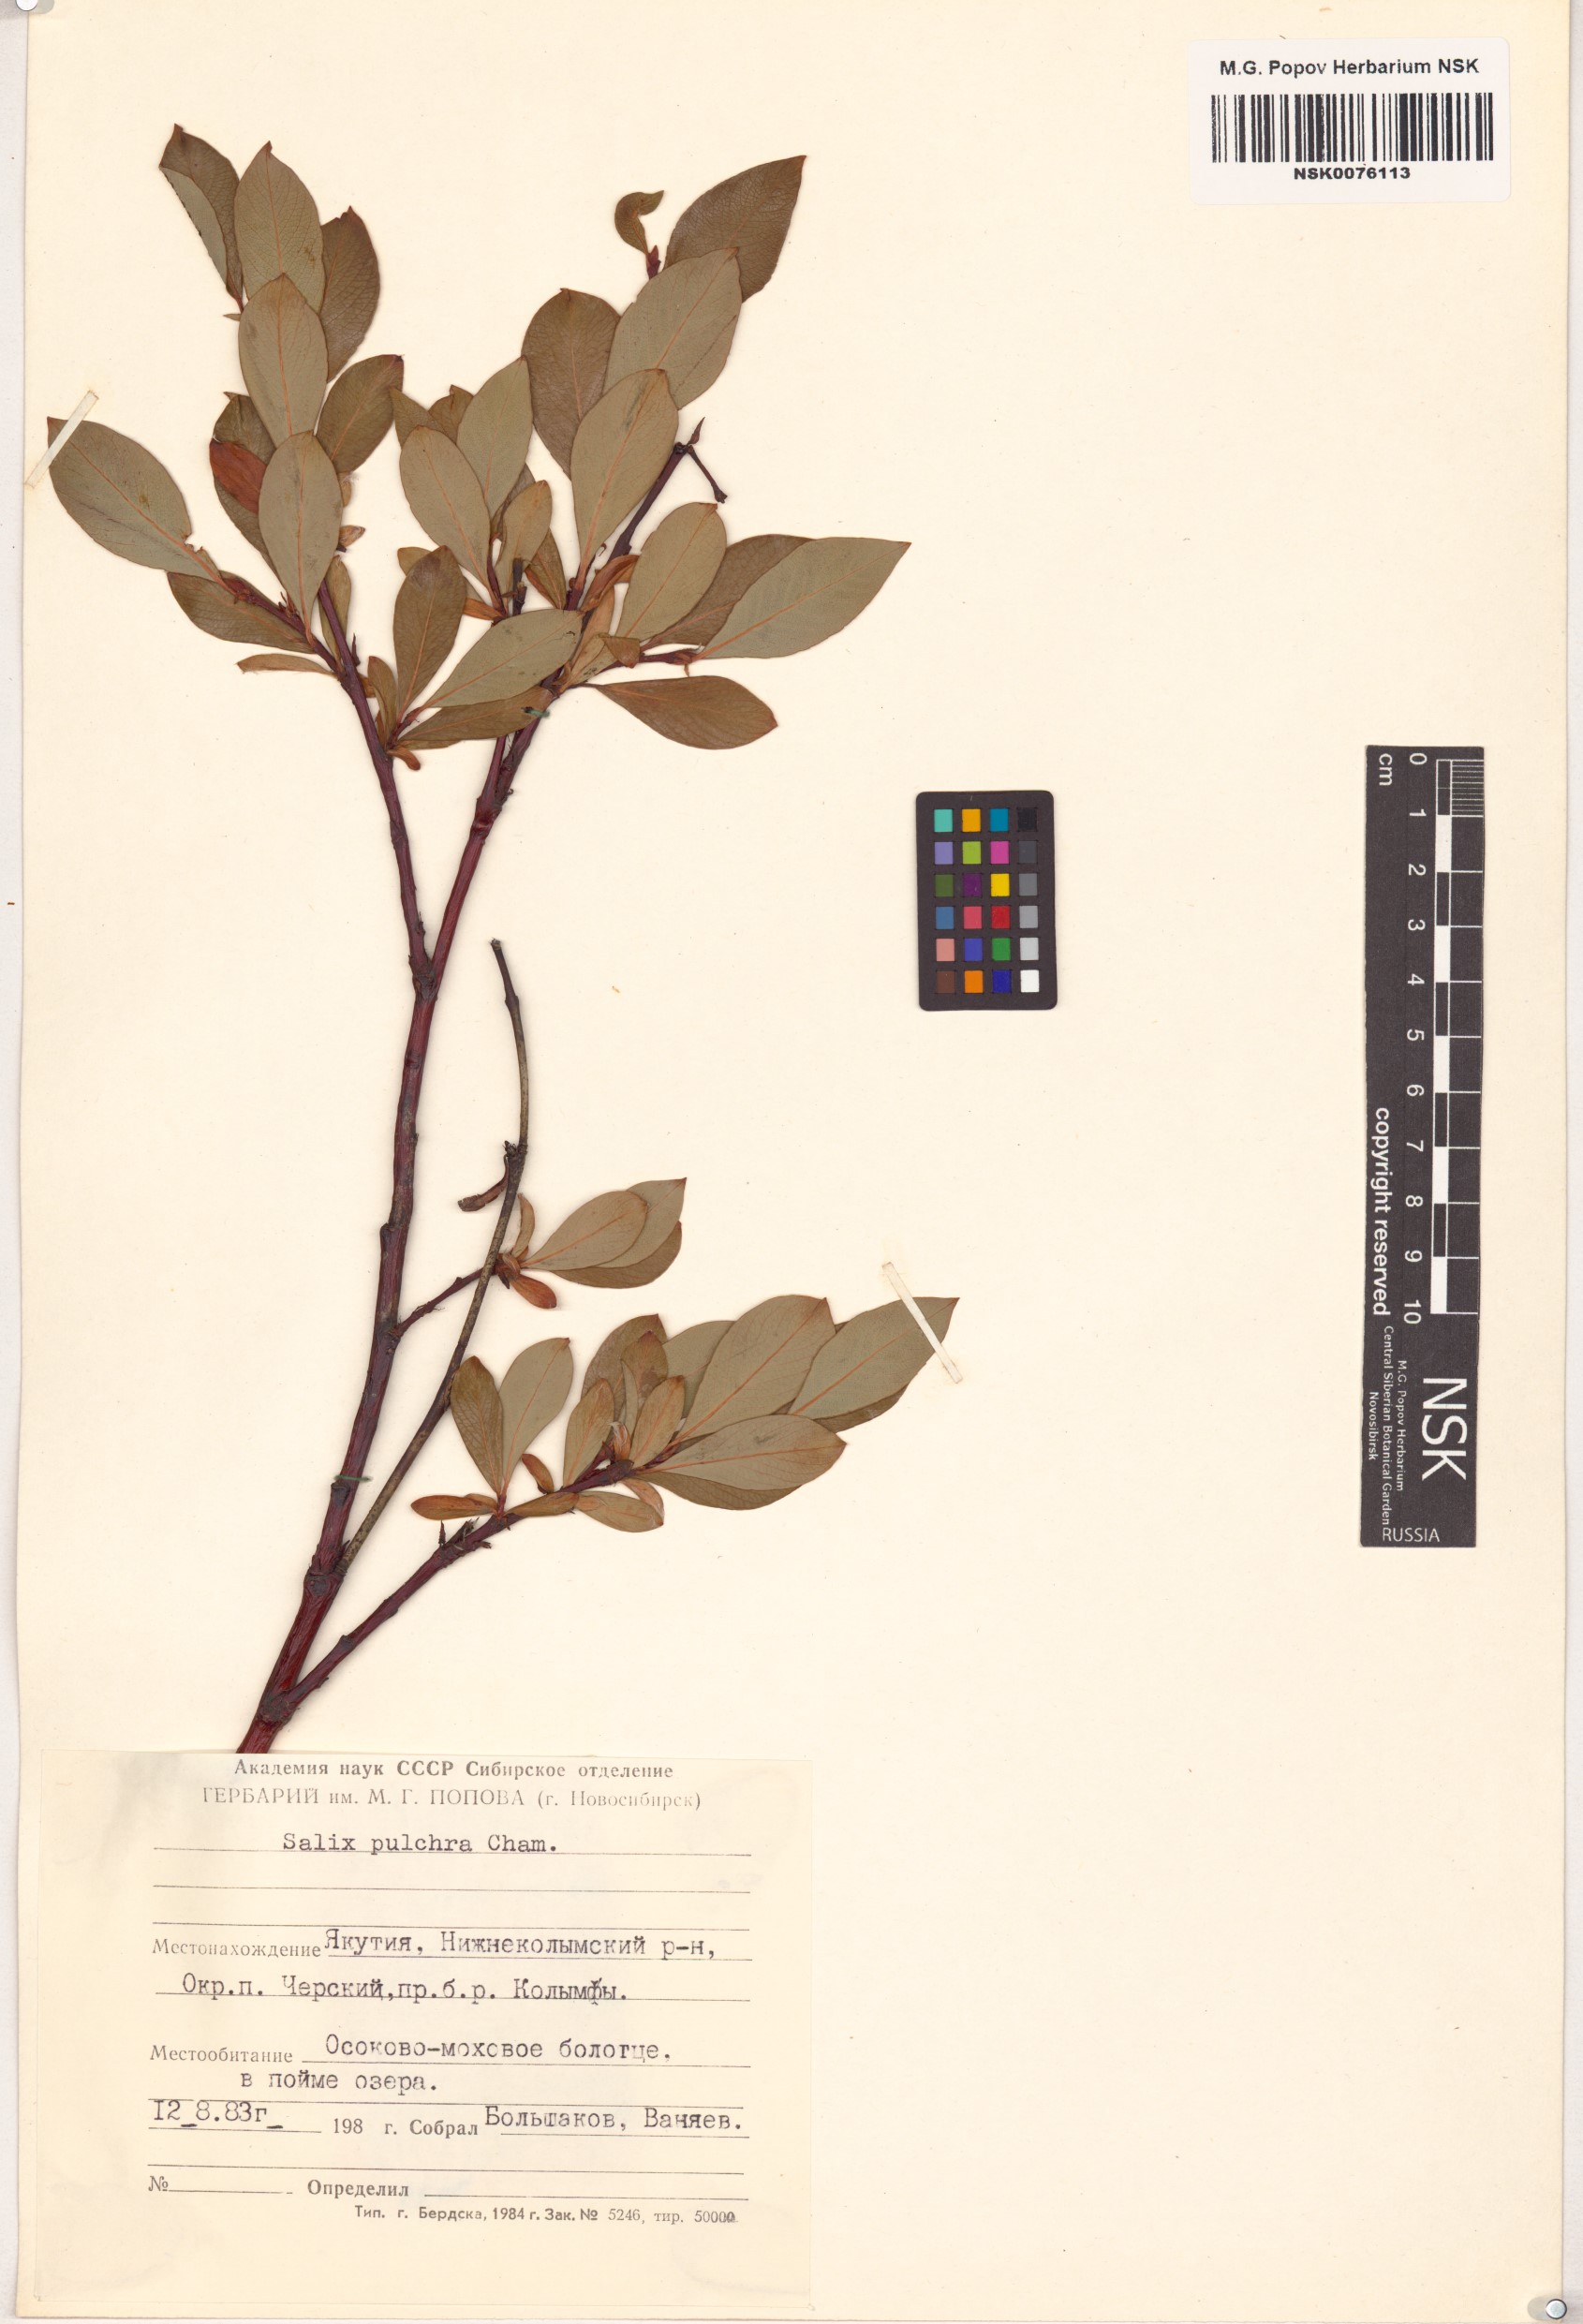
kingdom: Plantae
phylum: Tracheophyta
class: Magnoliopsida
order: Malpighiales
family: Salicaceae
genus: Salix
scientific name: Salix pulchra
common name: Diamond-leaved willow
